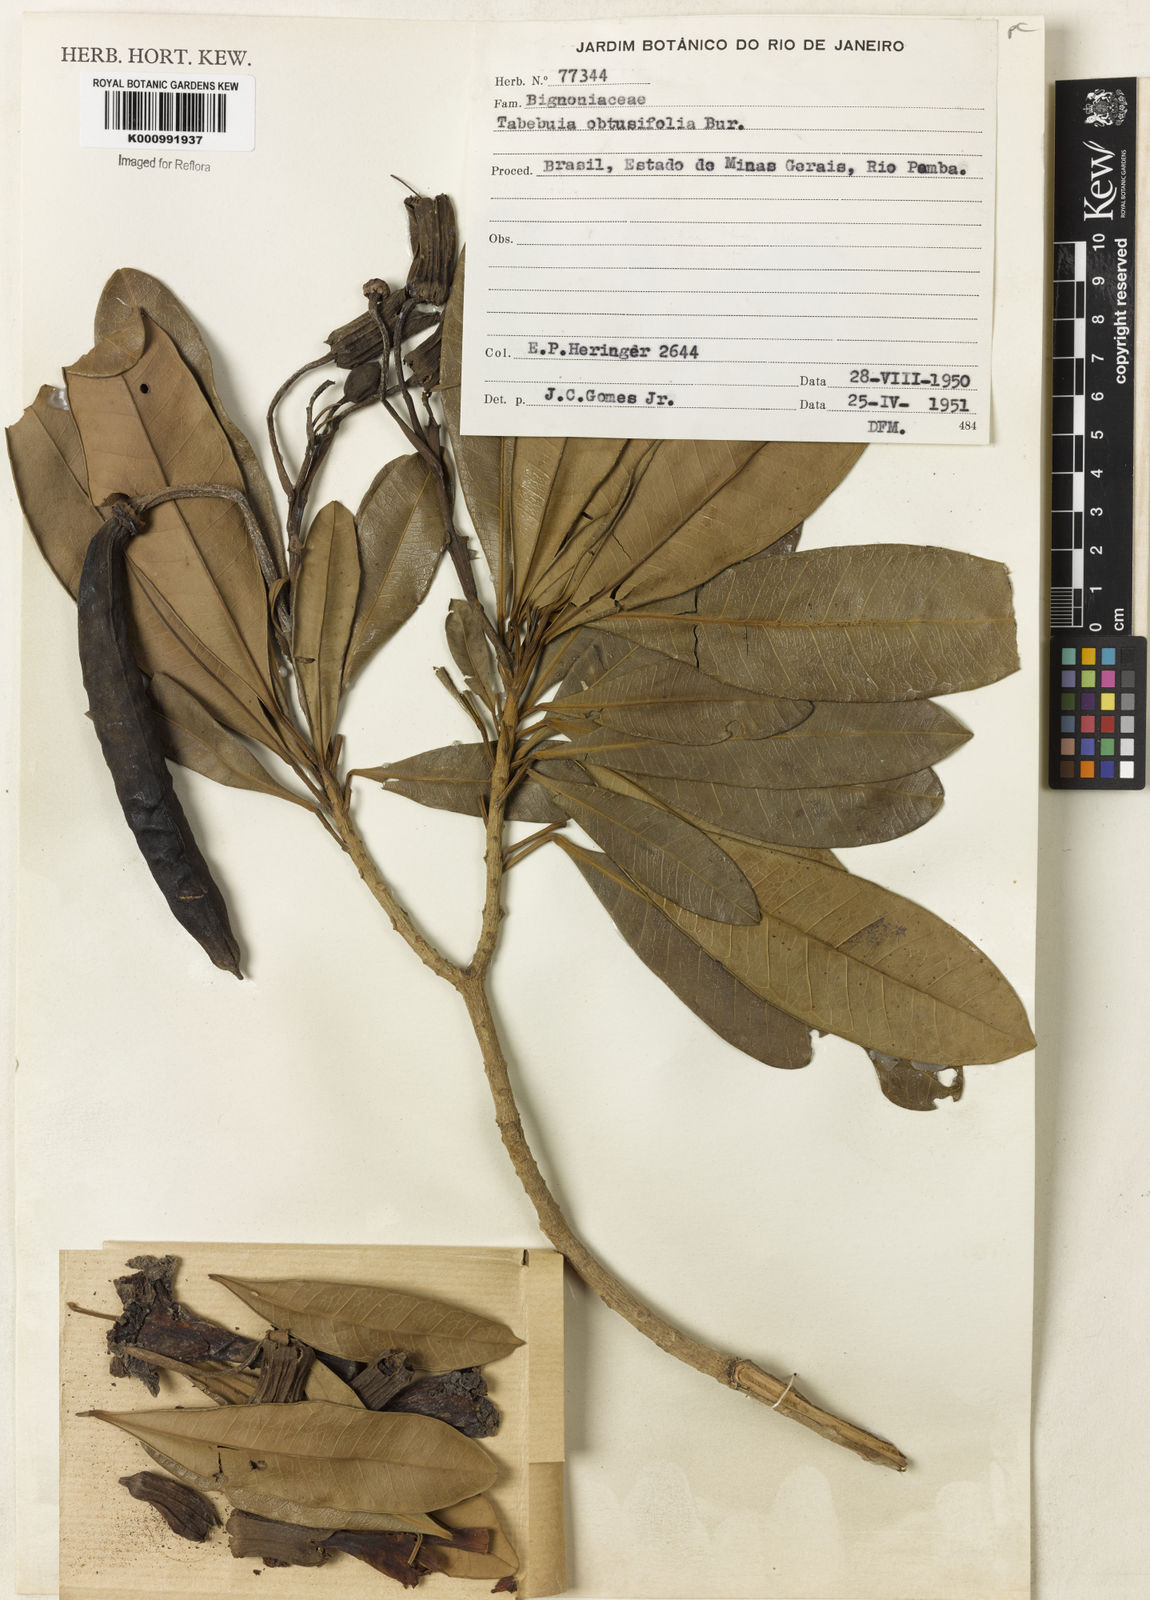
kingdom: Plantae
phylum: Tracheophyta
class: Magnoliopsida
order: Lamiales
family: Bignoniaceae
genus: Tabebuia
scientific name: Tabebuia obtusifolia
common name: Guadeloupe trumpet-tree
